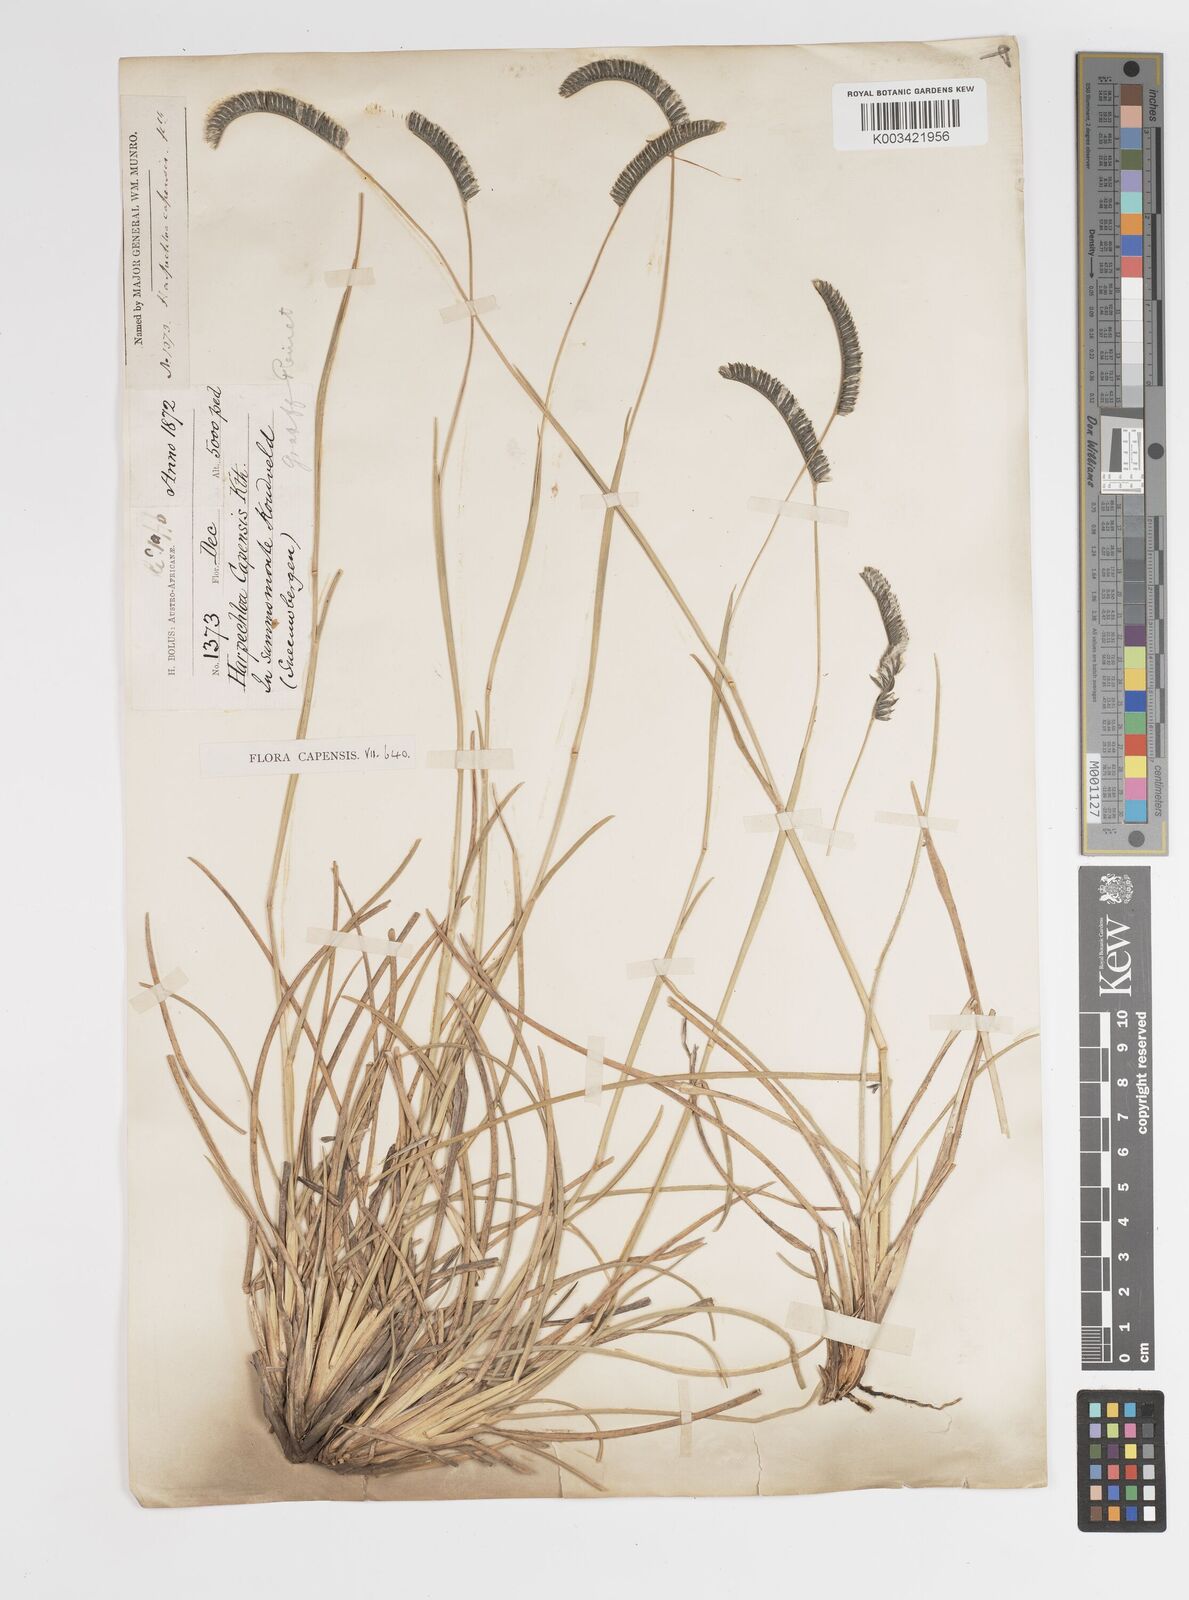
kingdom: Plantae
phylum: Tracheophyta
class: Liliopsida
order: Poales
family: Poaceae
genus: Harpochloa
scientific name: Harpochloa falx
